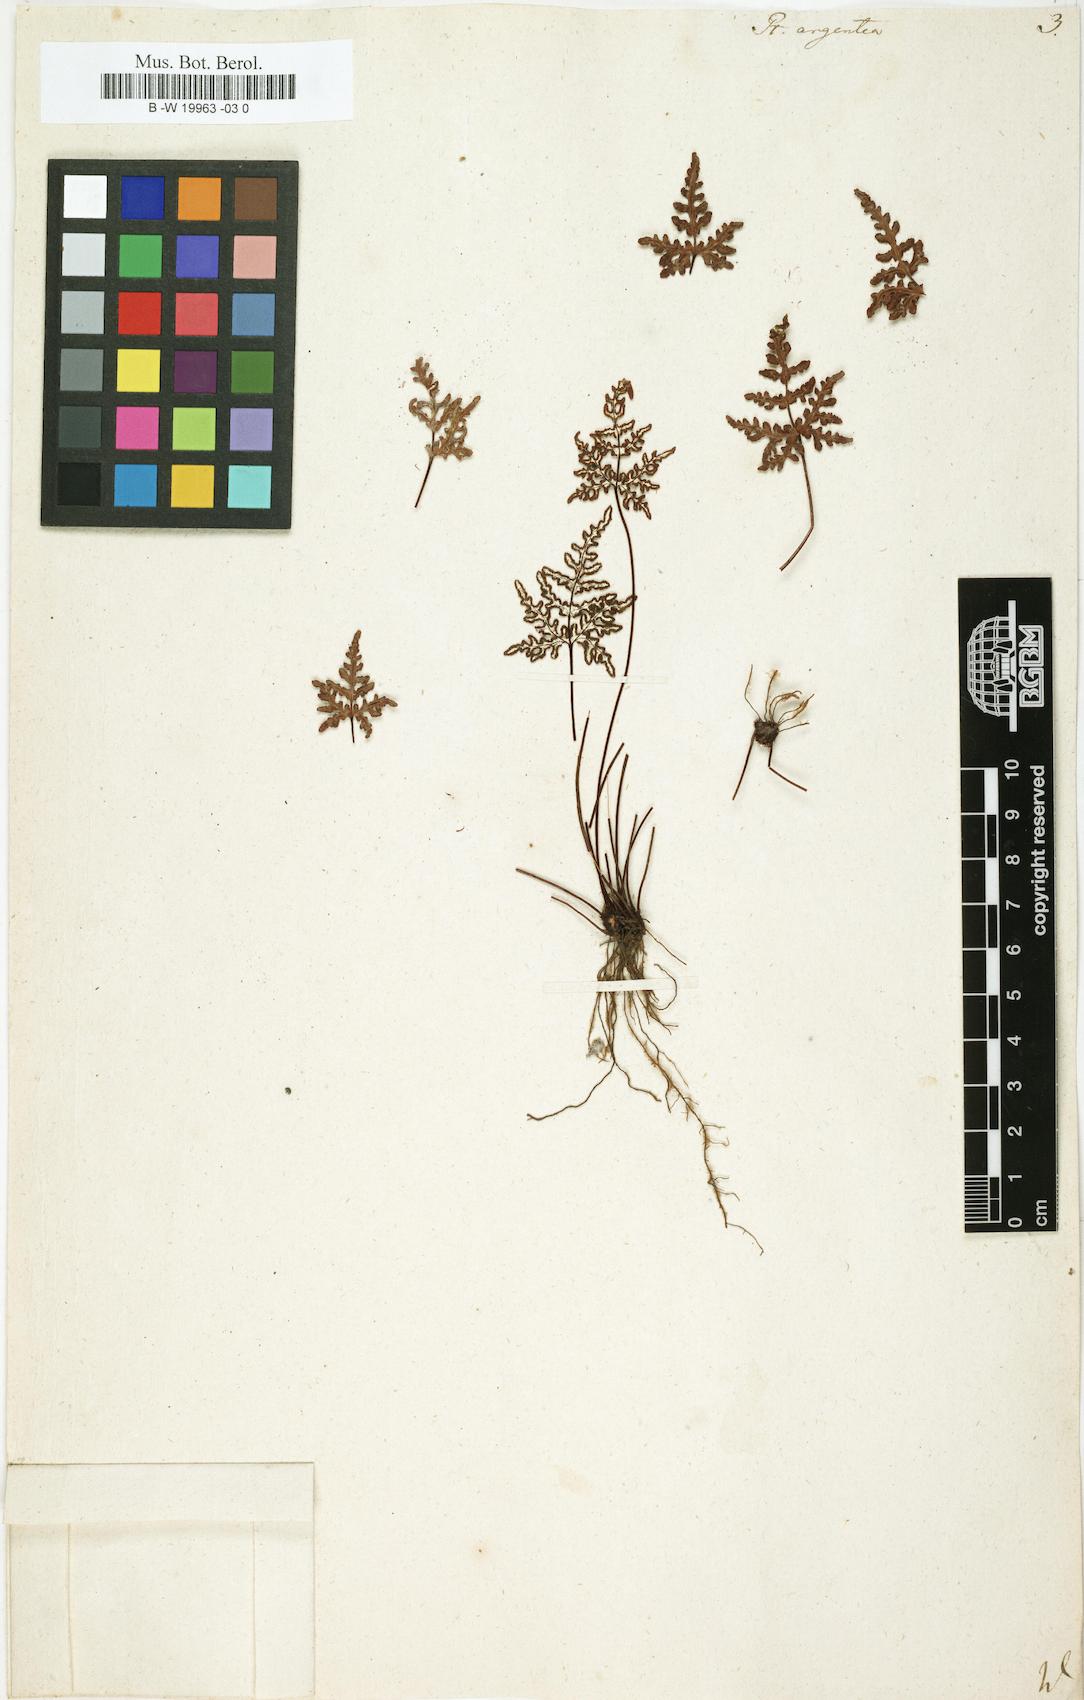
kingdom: Plantae
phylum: Tracheophyta
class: Polypodiopsida
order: Polypodiales
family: Pteridaceae
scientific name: Pteridaceae
